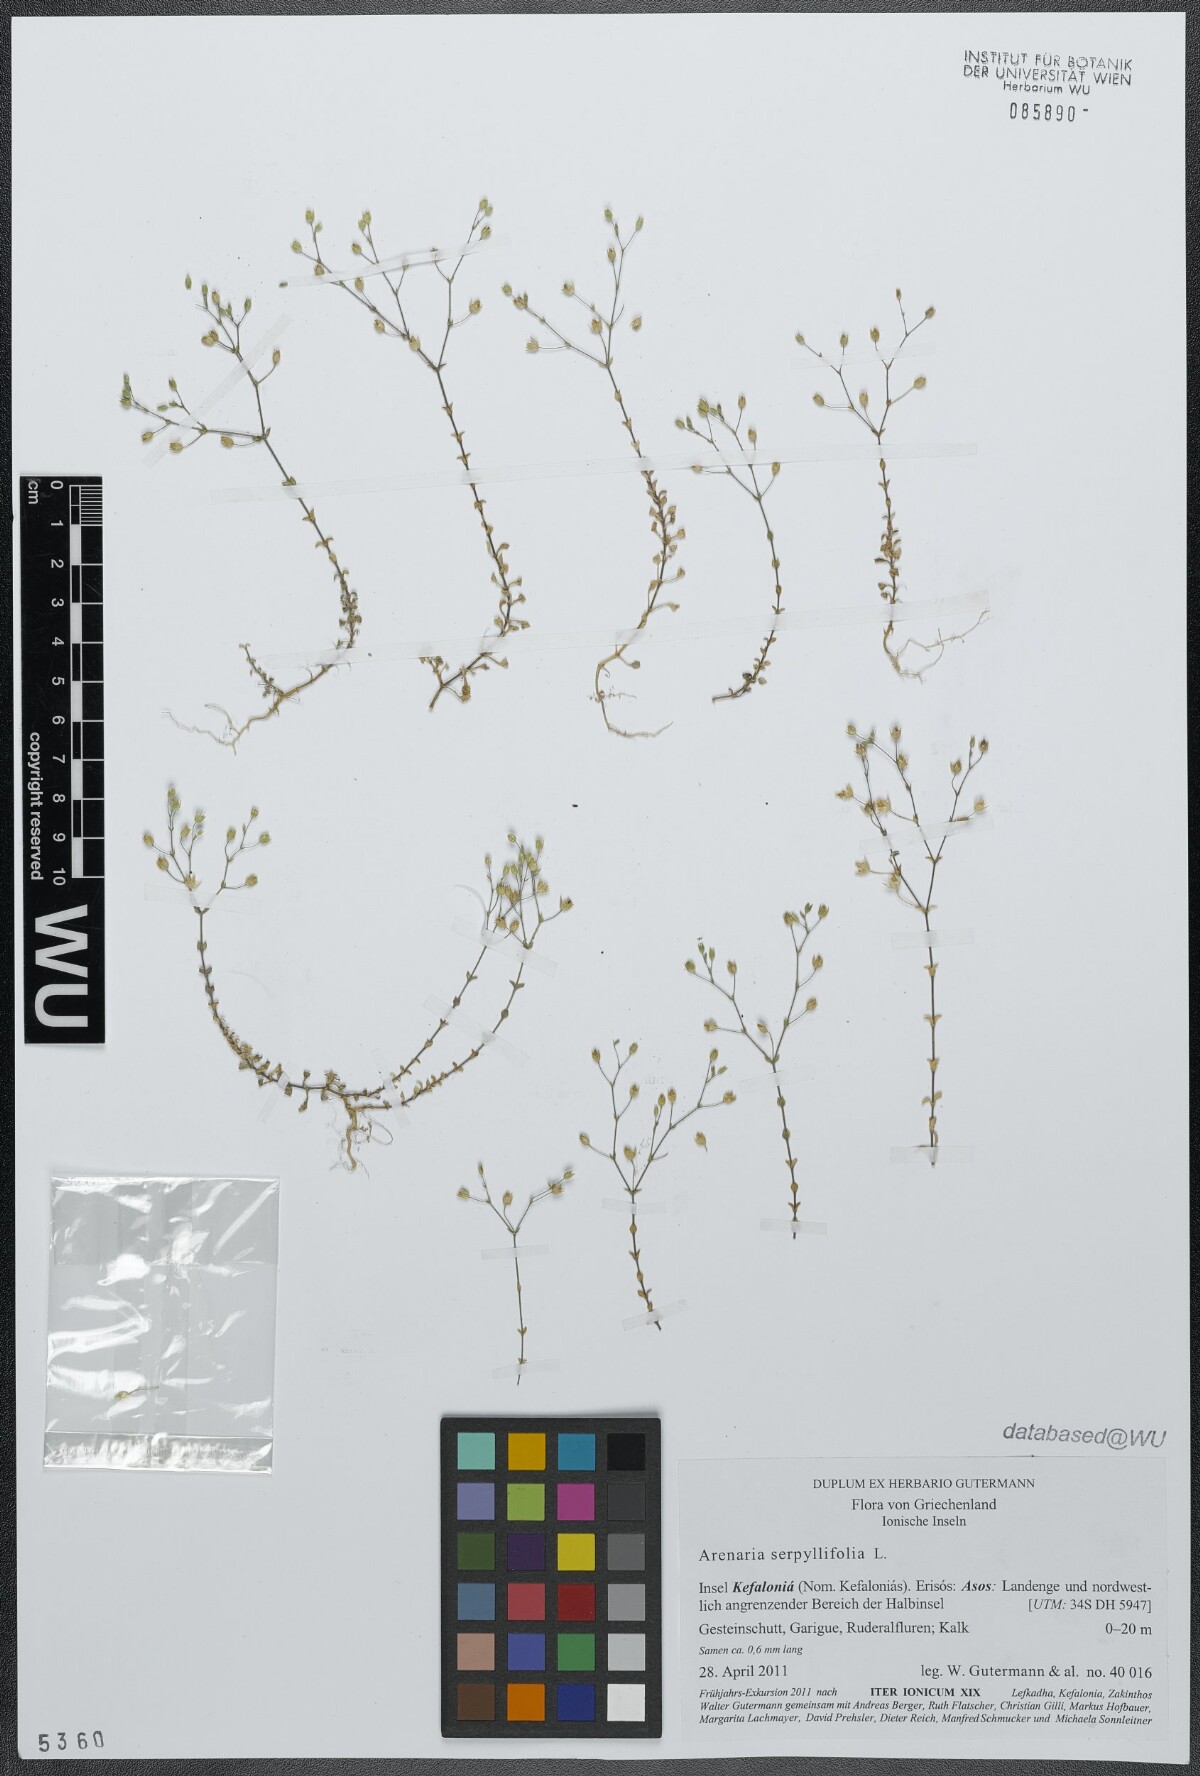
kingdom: Plantae
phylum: Tracheophyta
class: Magnoliopsida
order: Caryophyllales
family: Caryophyllaceae
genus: Arenaria
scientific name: Arenaria serpyllifolia
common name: Thyme-leaved sandwort
